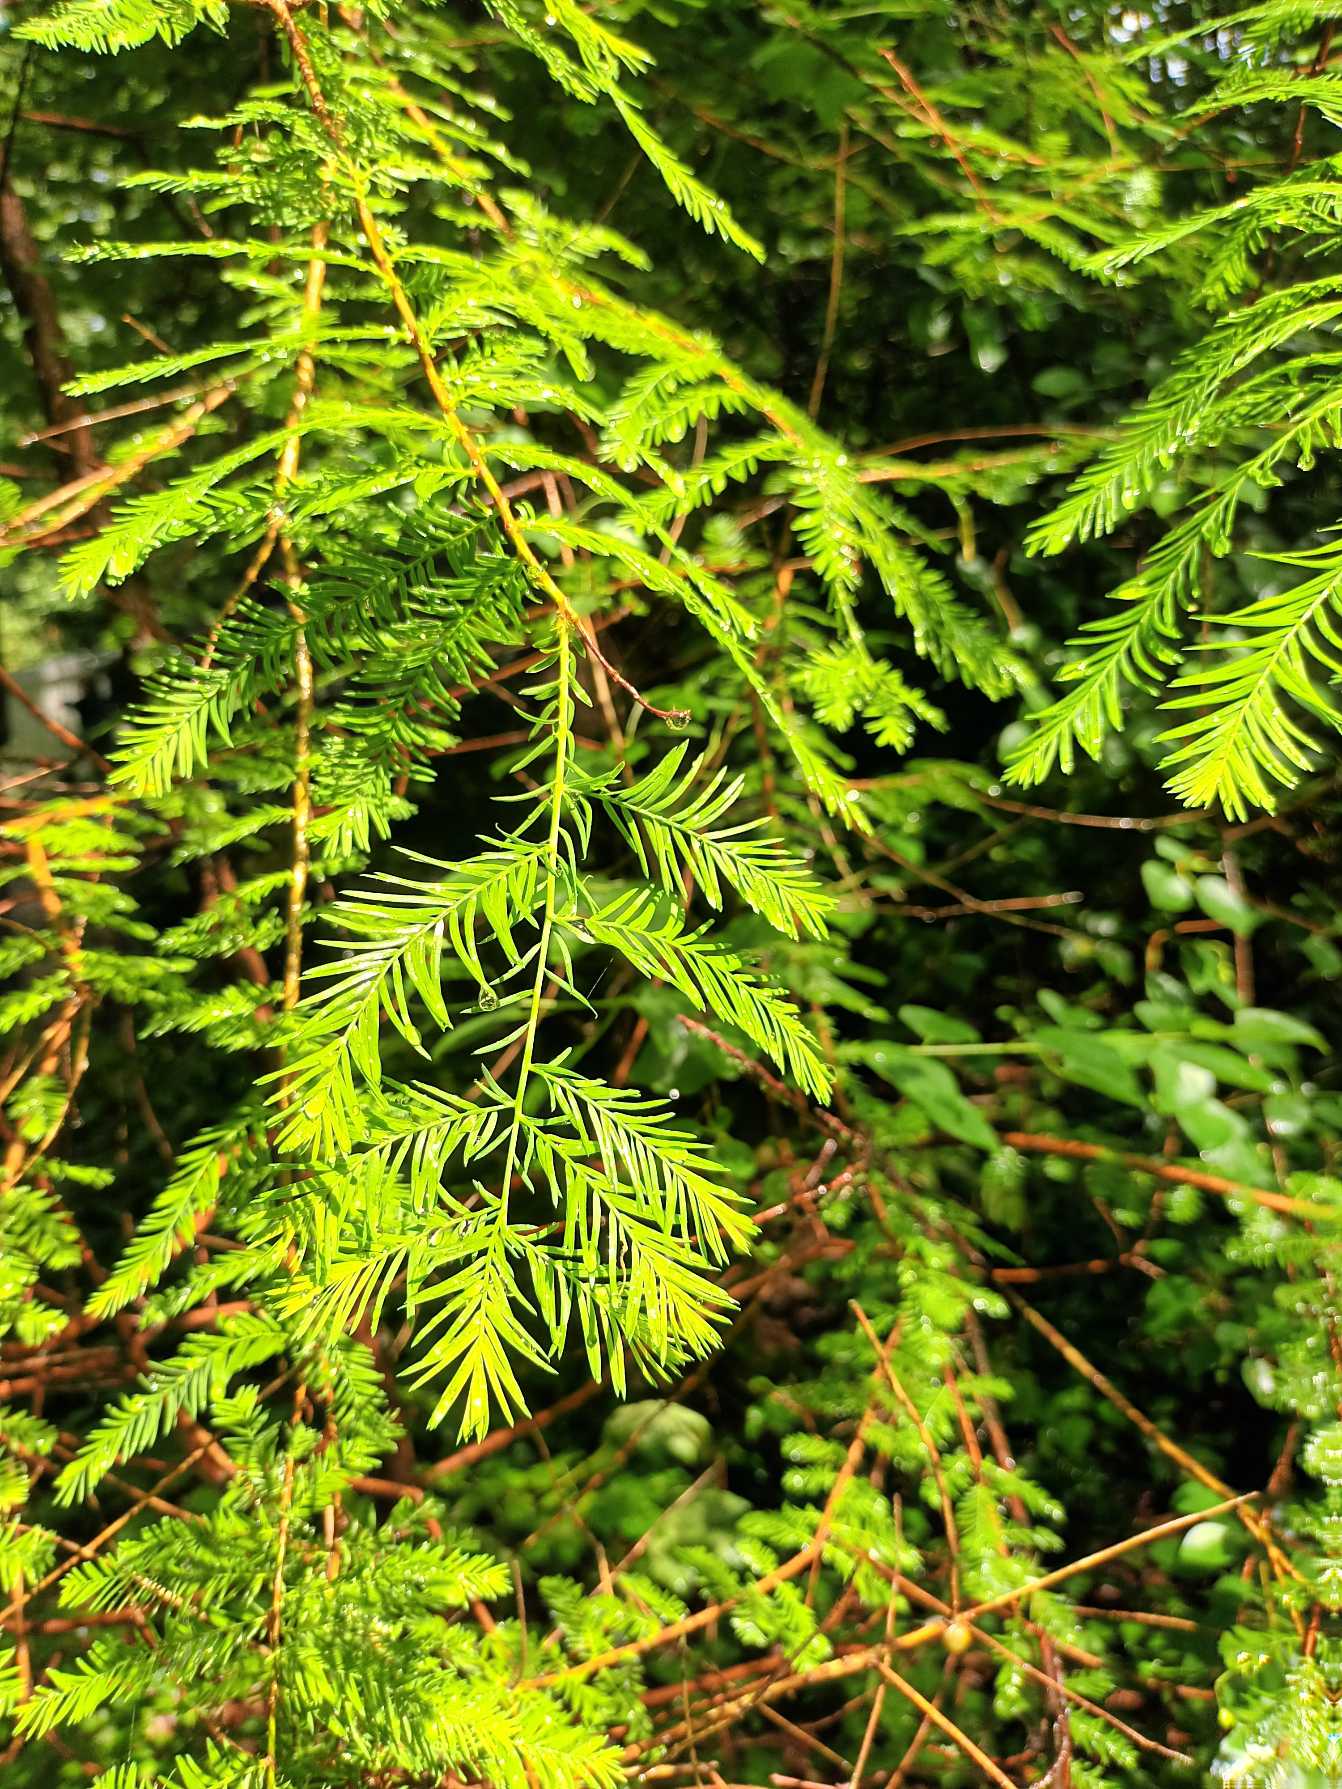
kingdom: Plantae
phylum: Tracheophyta
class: Pinopsida
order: Pinales
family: Cupressaceae
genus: Metasequoia
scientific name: Metasequoia glyptostroboides
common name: Vandgran
